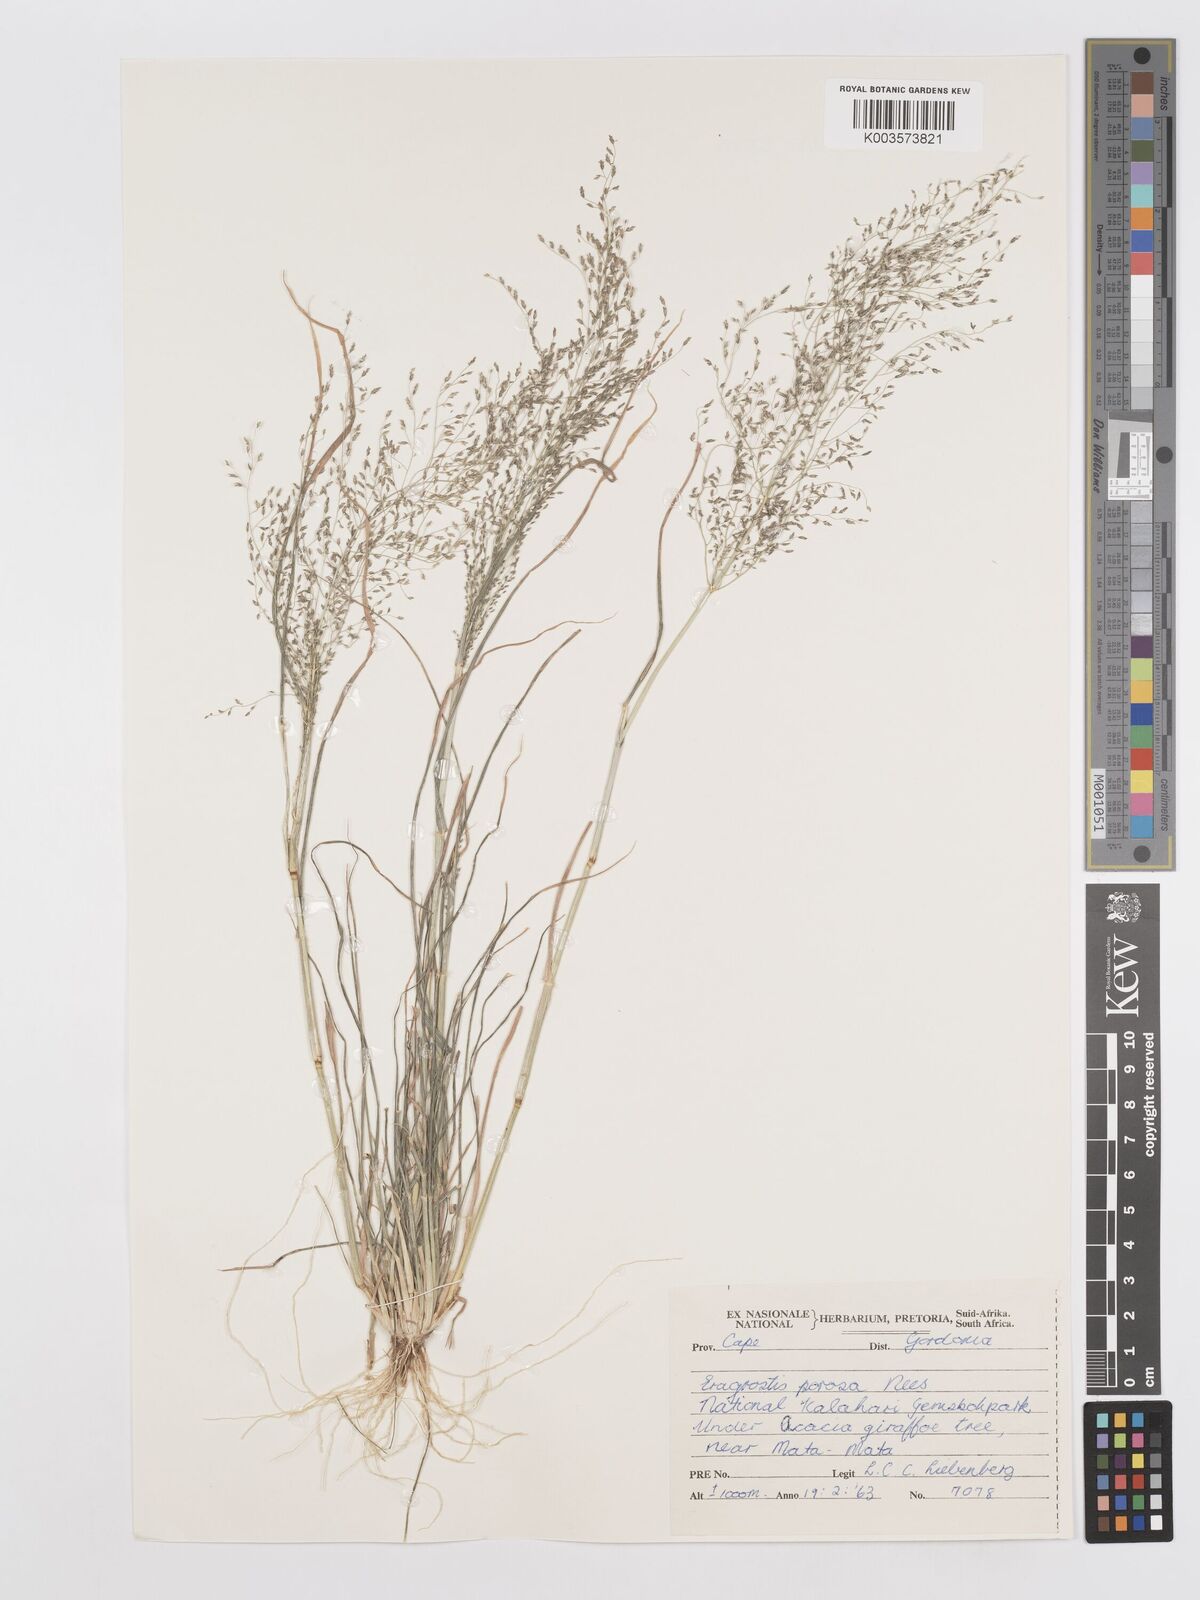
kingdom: Plantae
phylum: Tracheophyta
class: Liliopsida
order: Poales
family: Poaceae
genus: Eragrostis
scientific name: Eragrostis porosa
